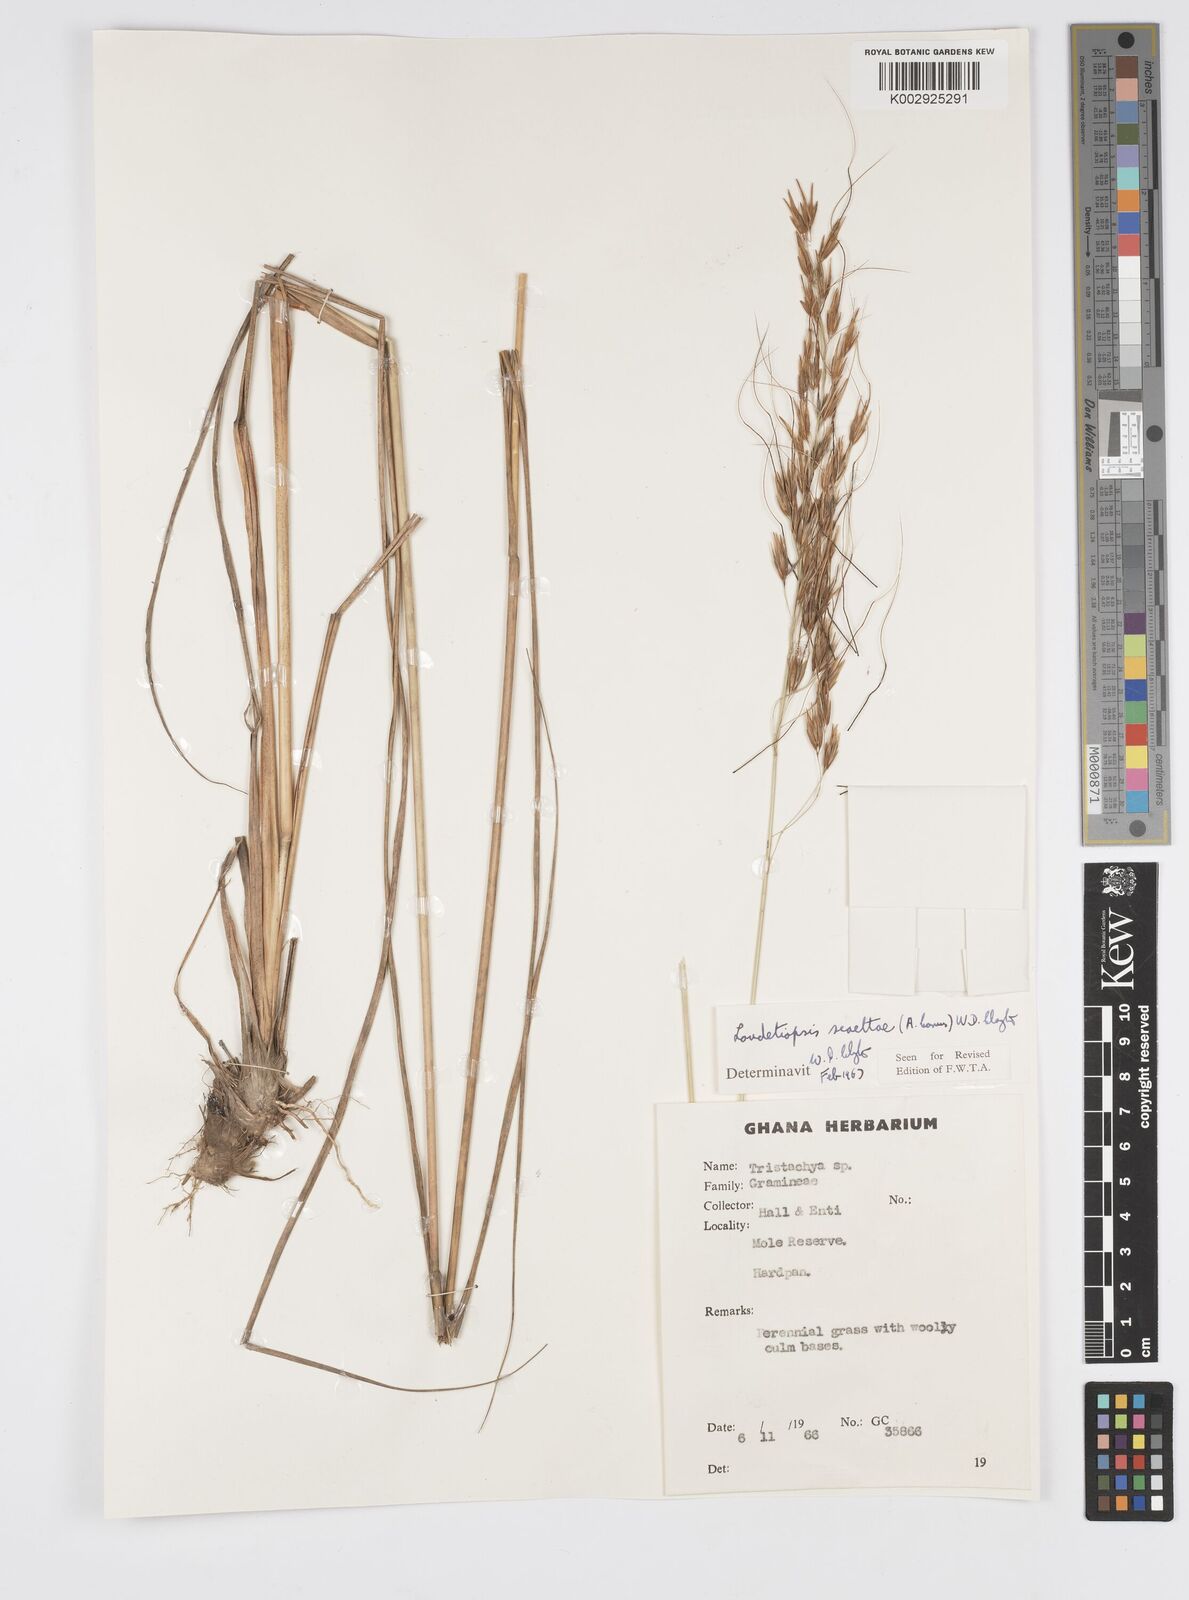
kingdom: Plantae
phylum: Tracheophyta
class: Liliopsida
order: Poales
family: Poaceae
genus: Loudetiopsis
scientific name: Loudetiopsis scaettae
